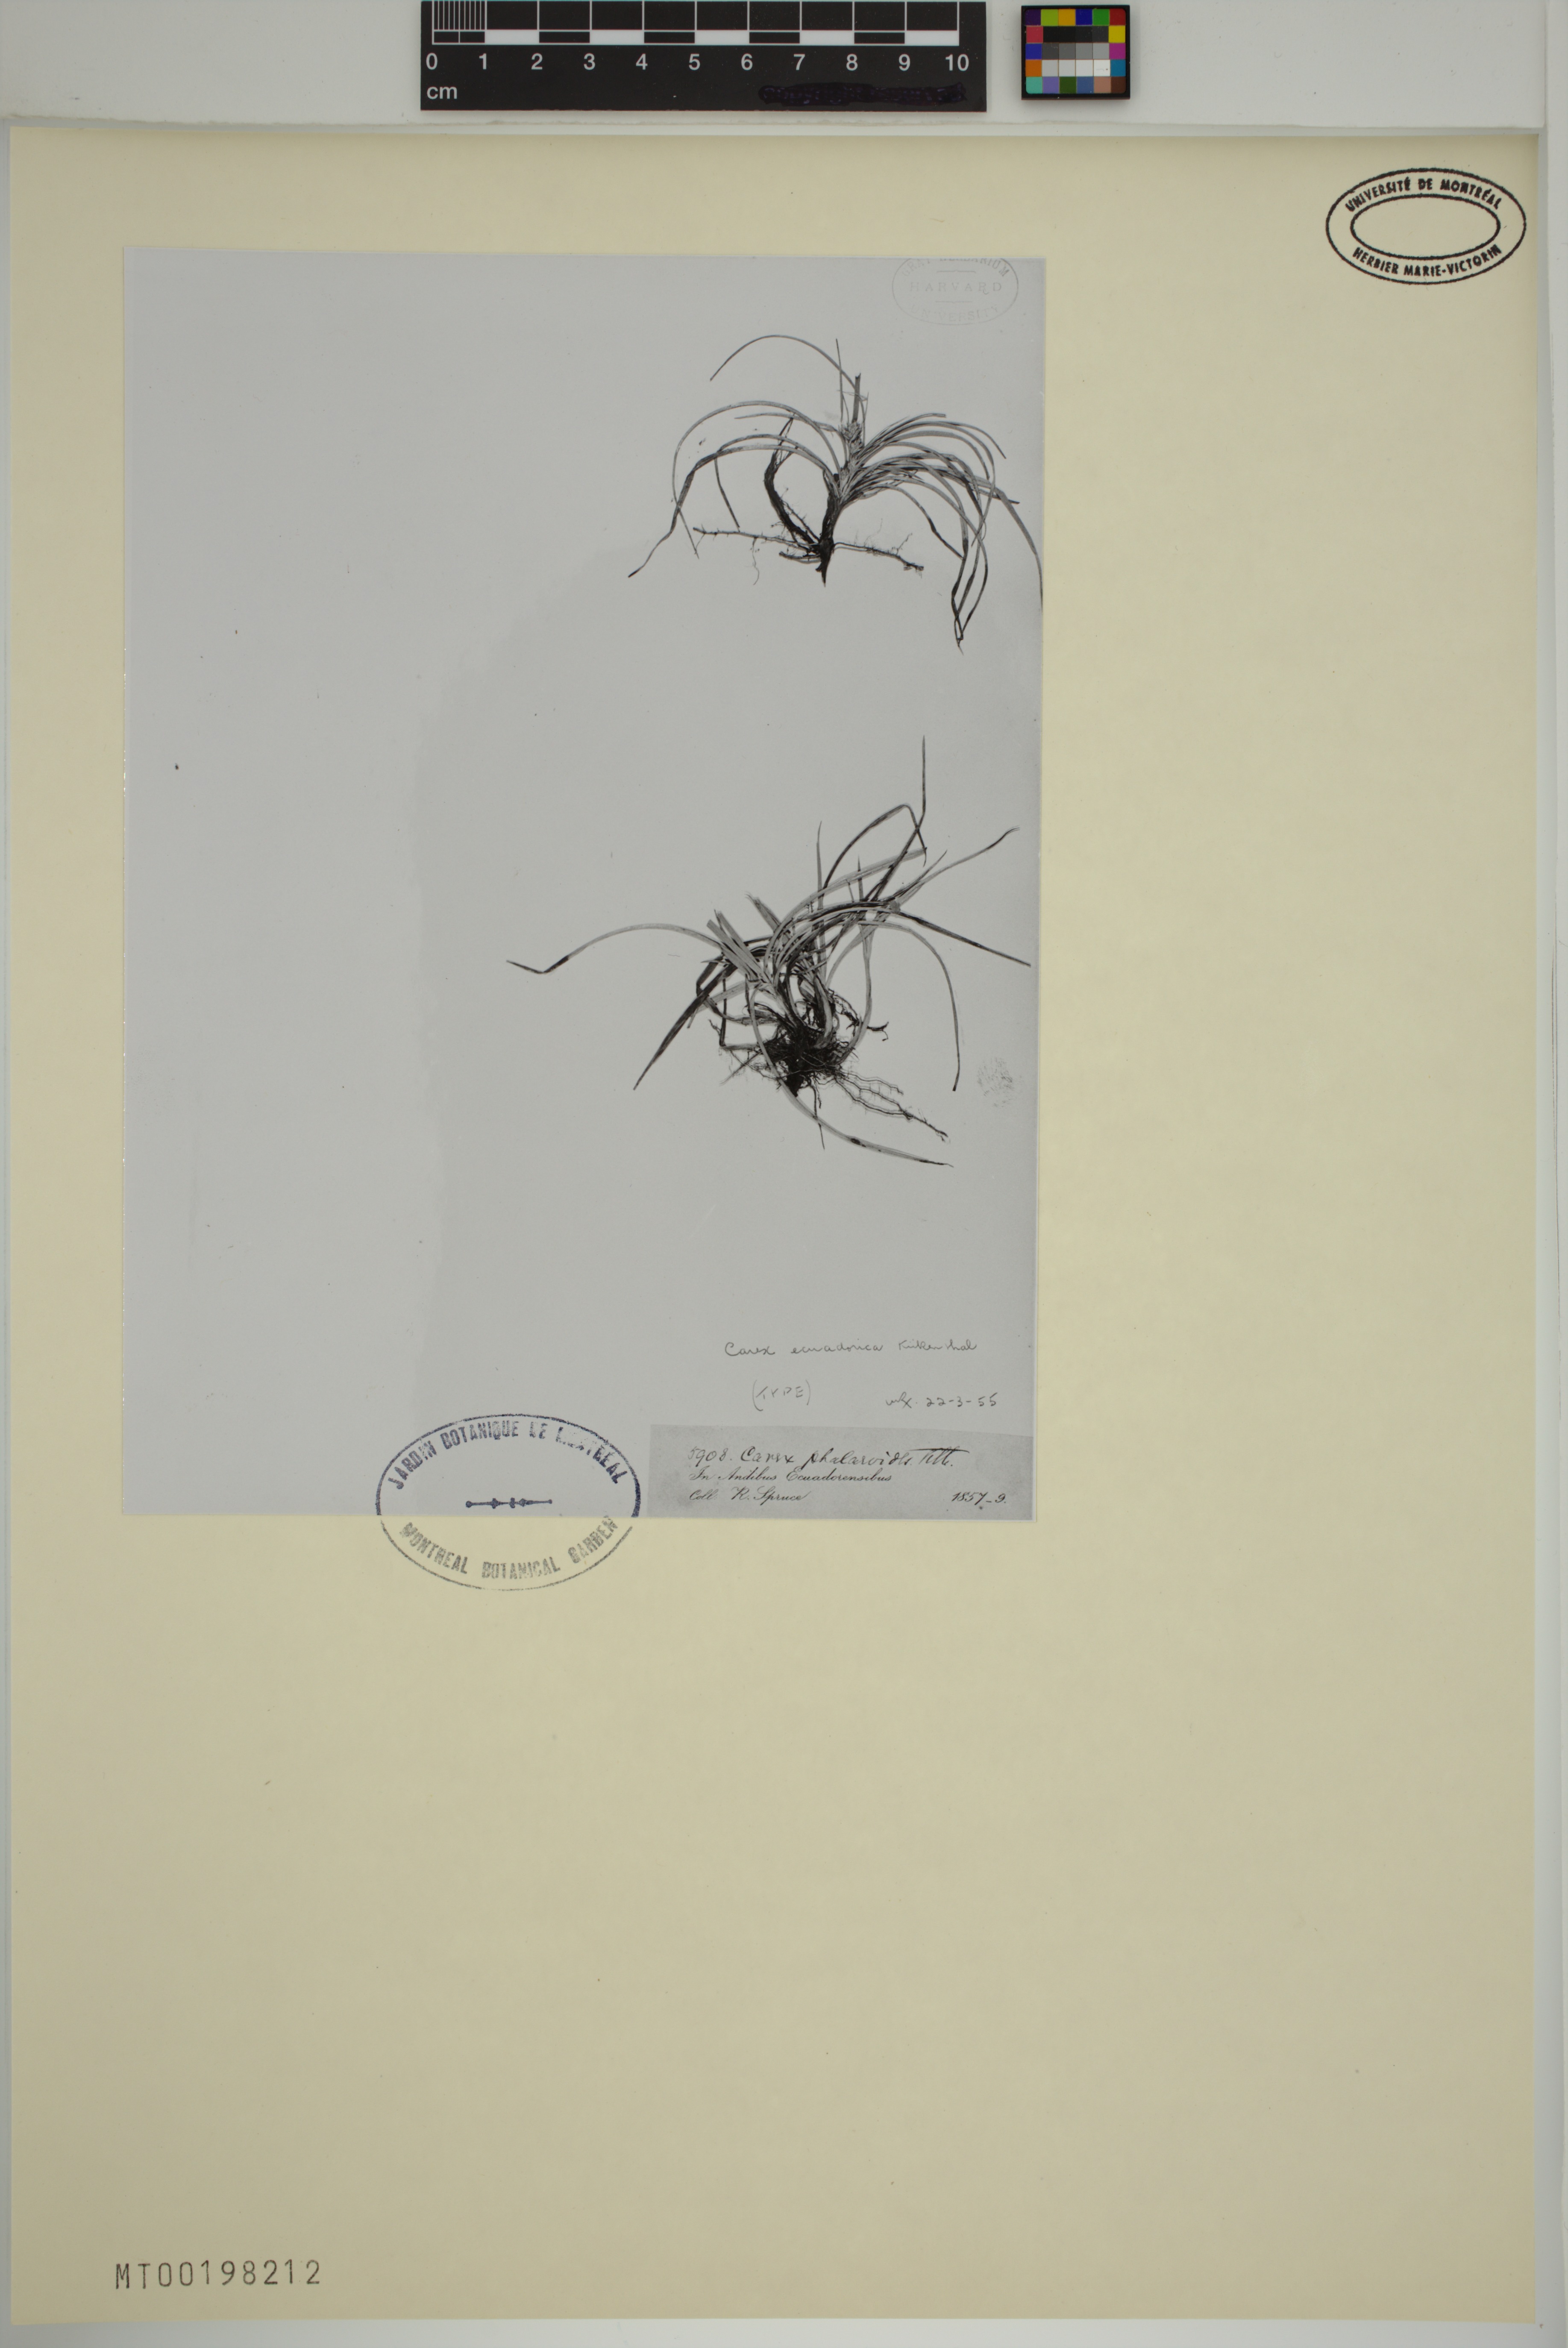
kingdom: Plantae
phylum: Tracheophyta
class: Liliopsida
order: Poales
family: Cyperaceae
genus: Carex
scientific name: Carex ecuadorica
